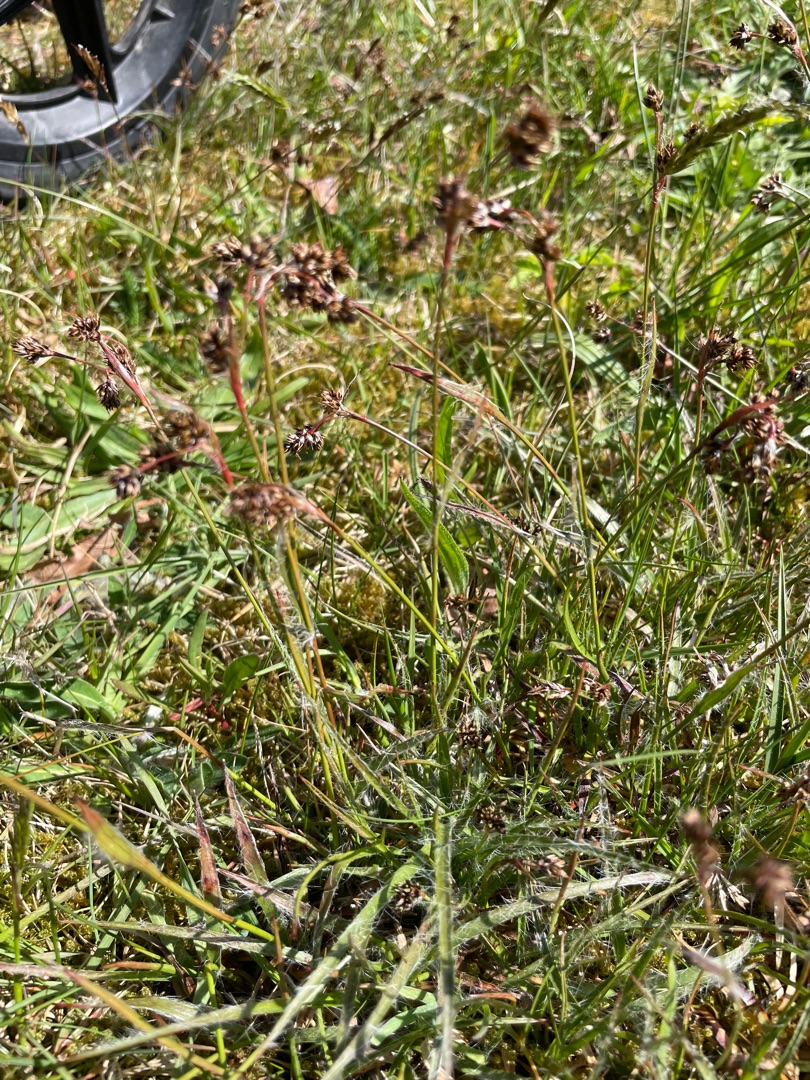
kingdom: Plantae
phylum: Tracheophyta
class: Liliopsida
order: Poales
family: Juncaceae
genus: Luzula
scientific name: Luzula campestris
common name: Mark-frytle
